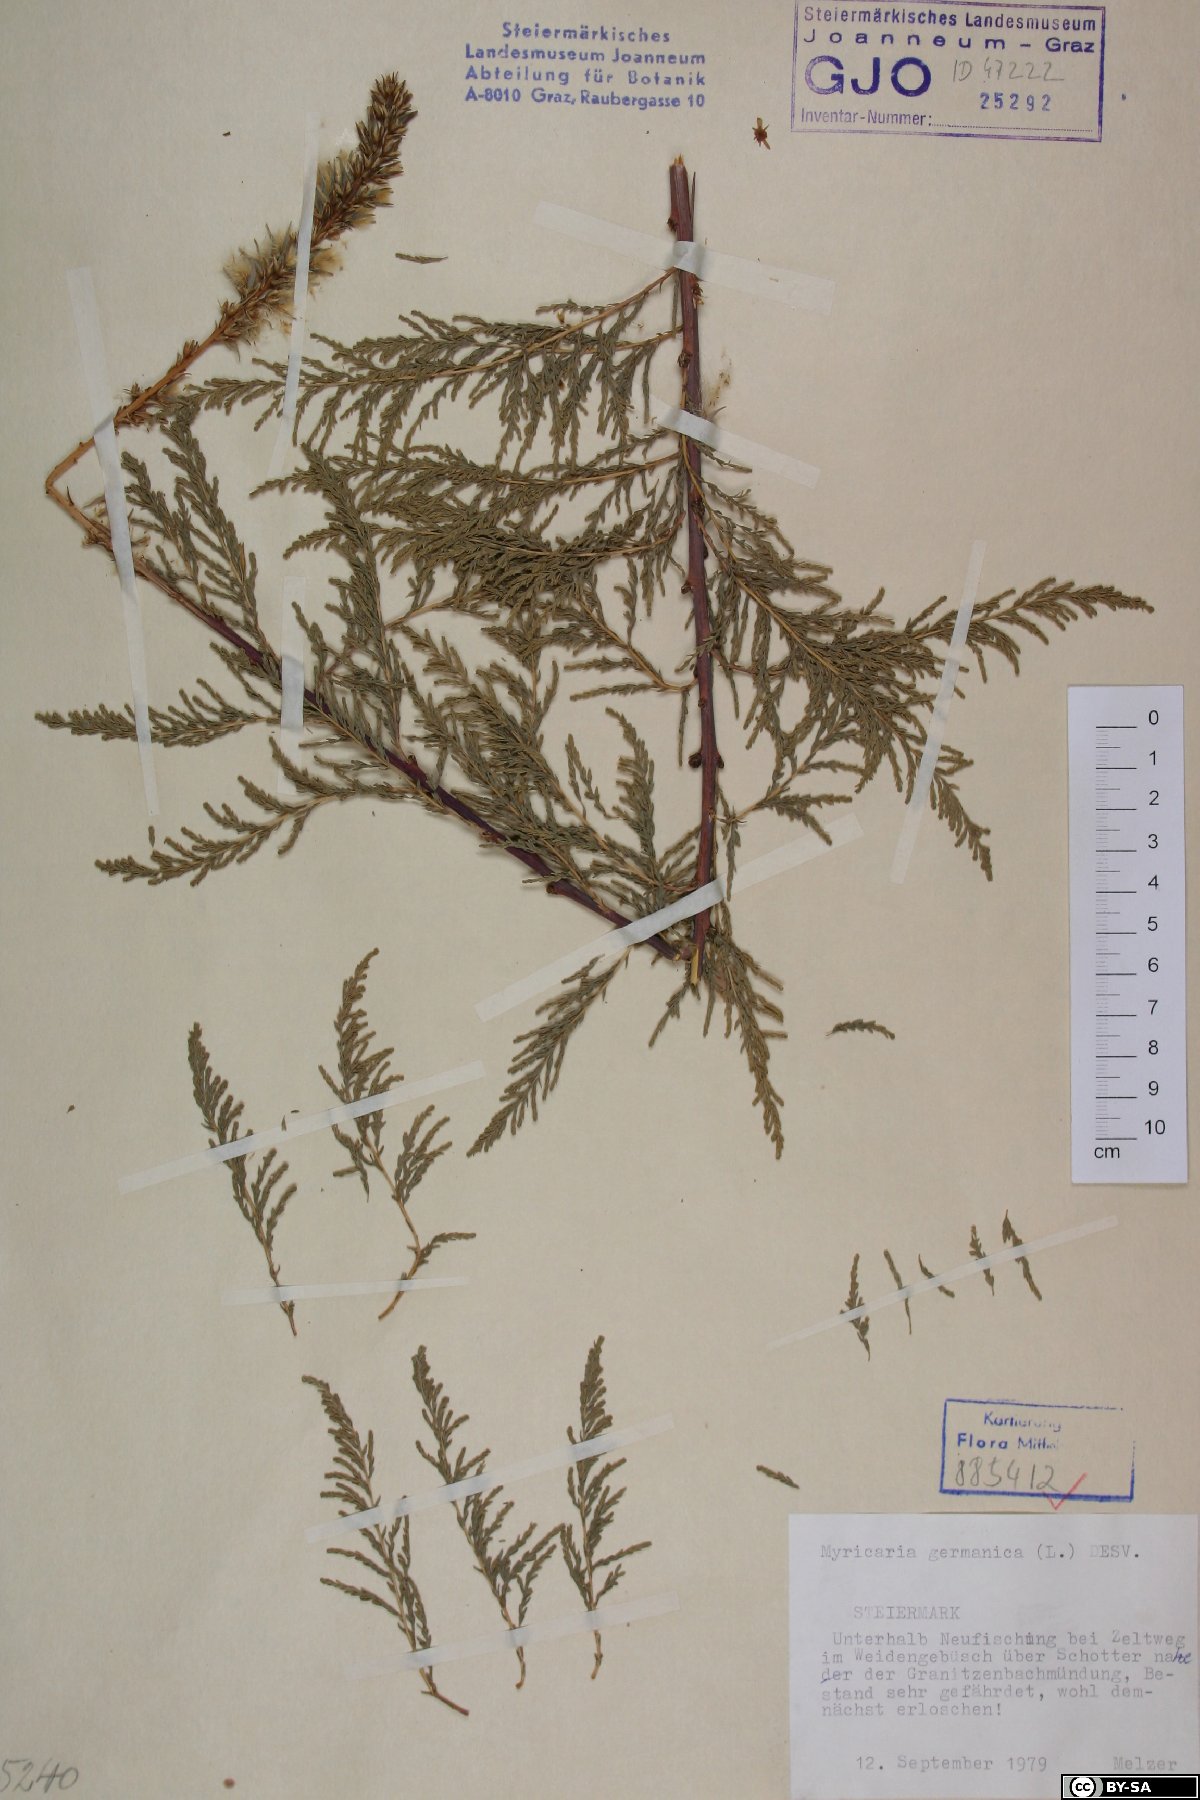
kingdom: Plantae
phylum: Tracheophyta
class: Magnoliopsida
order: Caryophyllales
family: Tamaricaceae
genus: Myricaria
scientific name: Myricaria germanica
